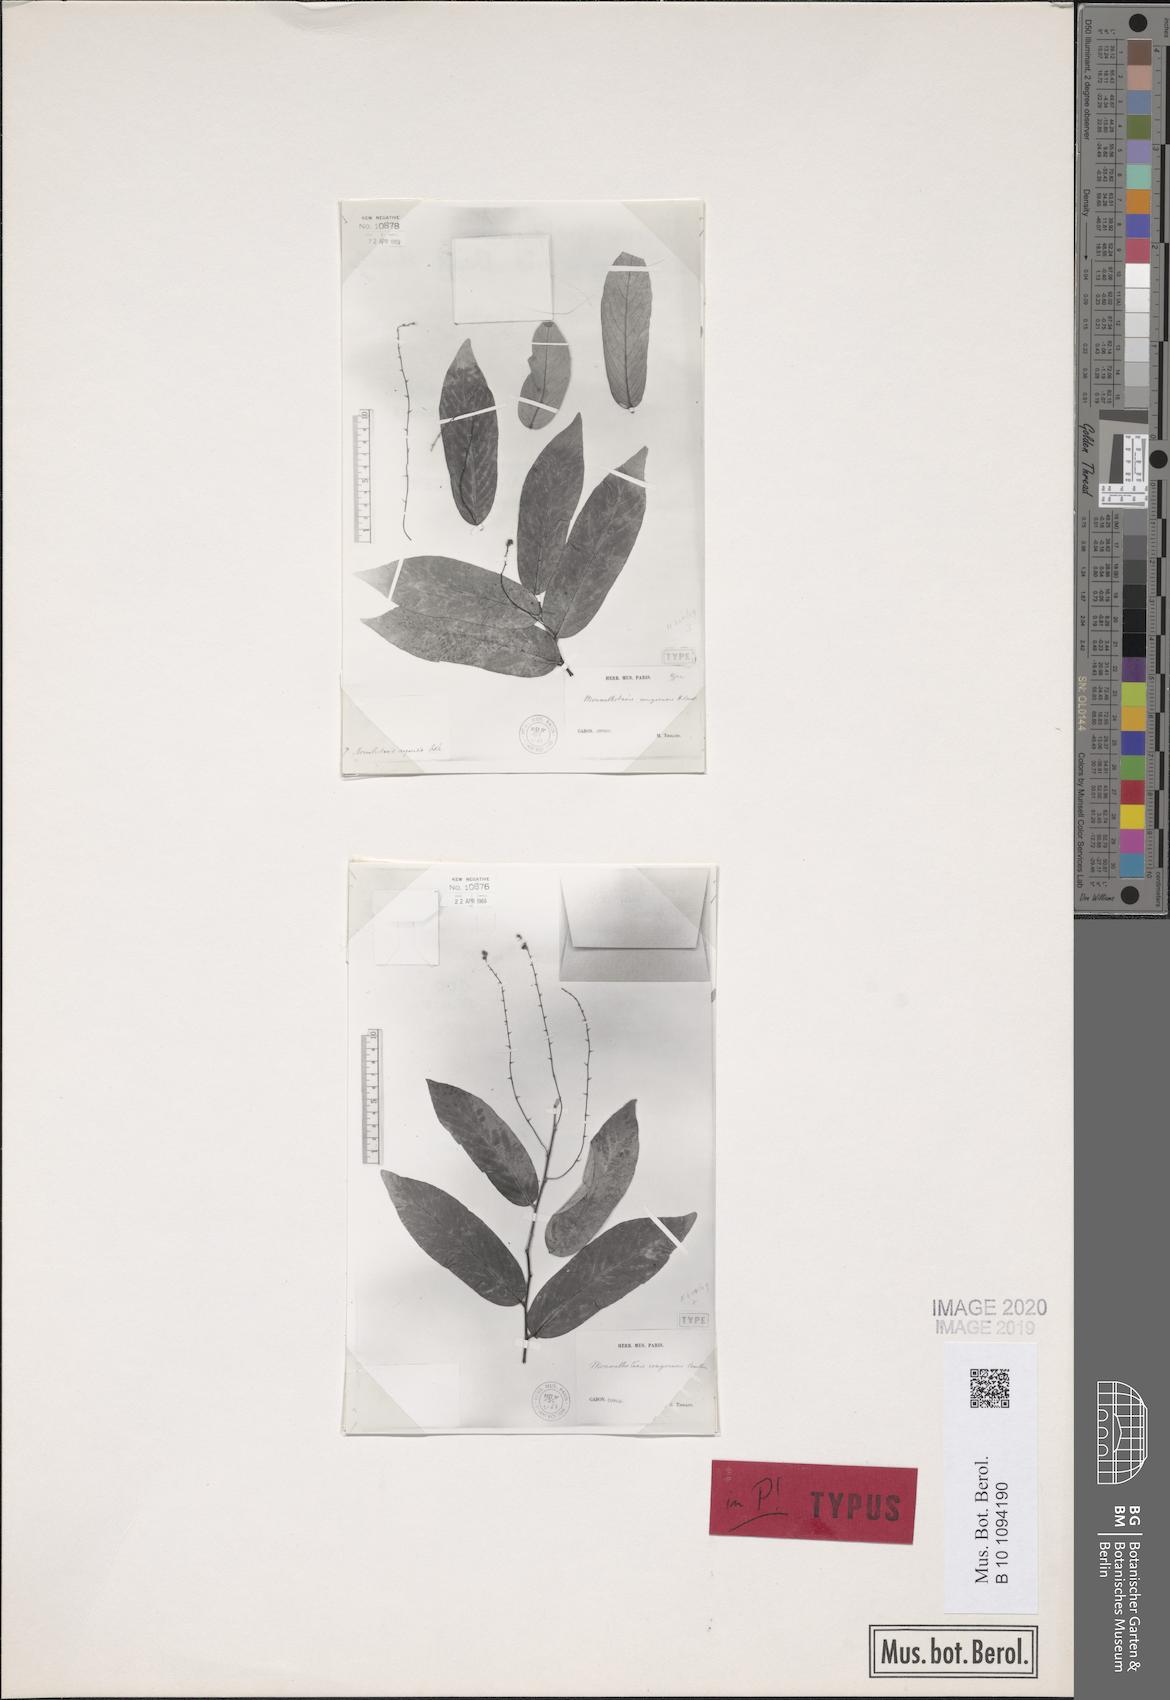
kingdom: Plantae
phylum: Tracheophyta
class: Magnoliopsida
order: Magnoliales
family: Annonaceae
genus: Monanthotaxis
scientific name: Monanthotaxis congoensis
